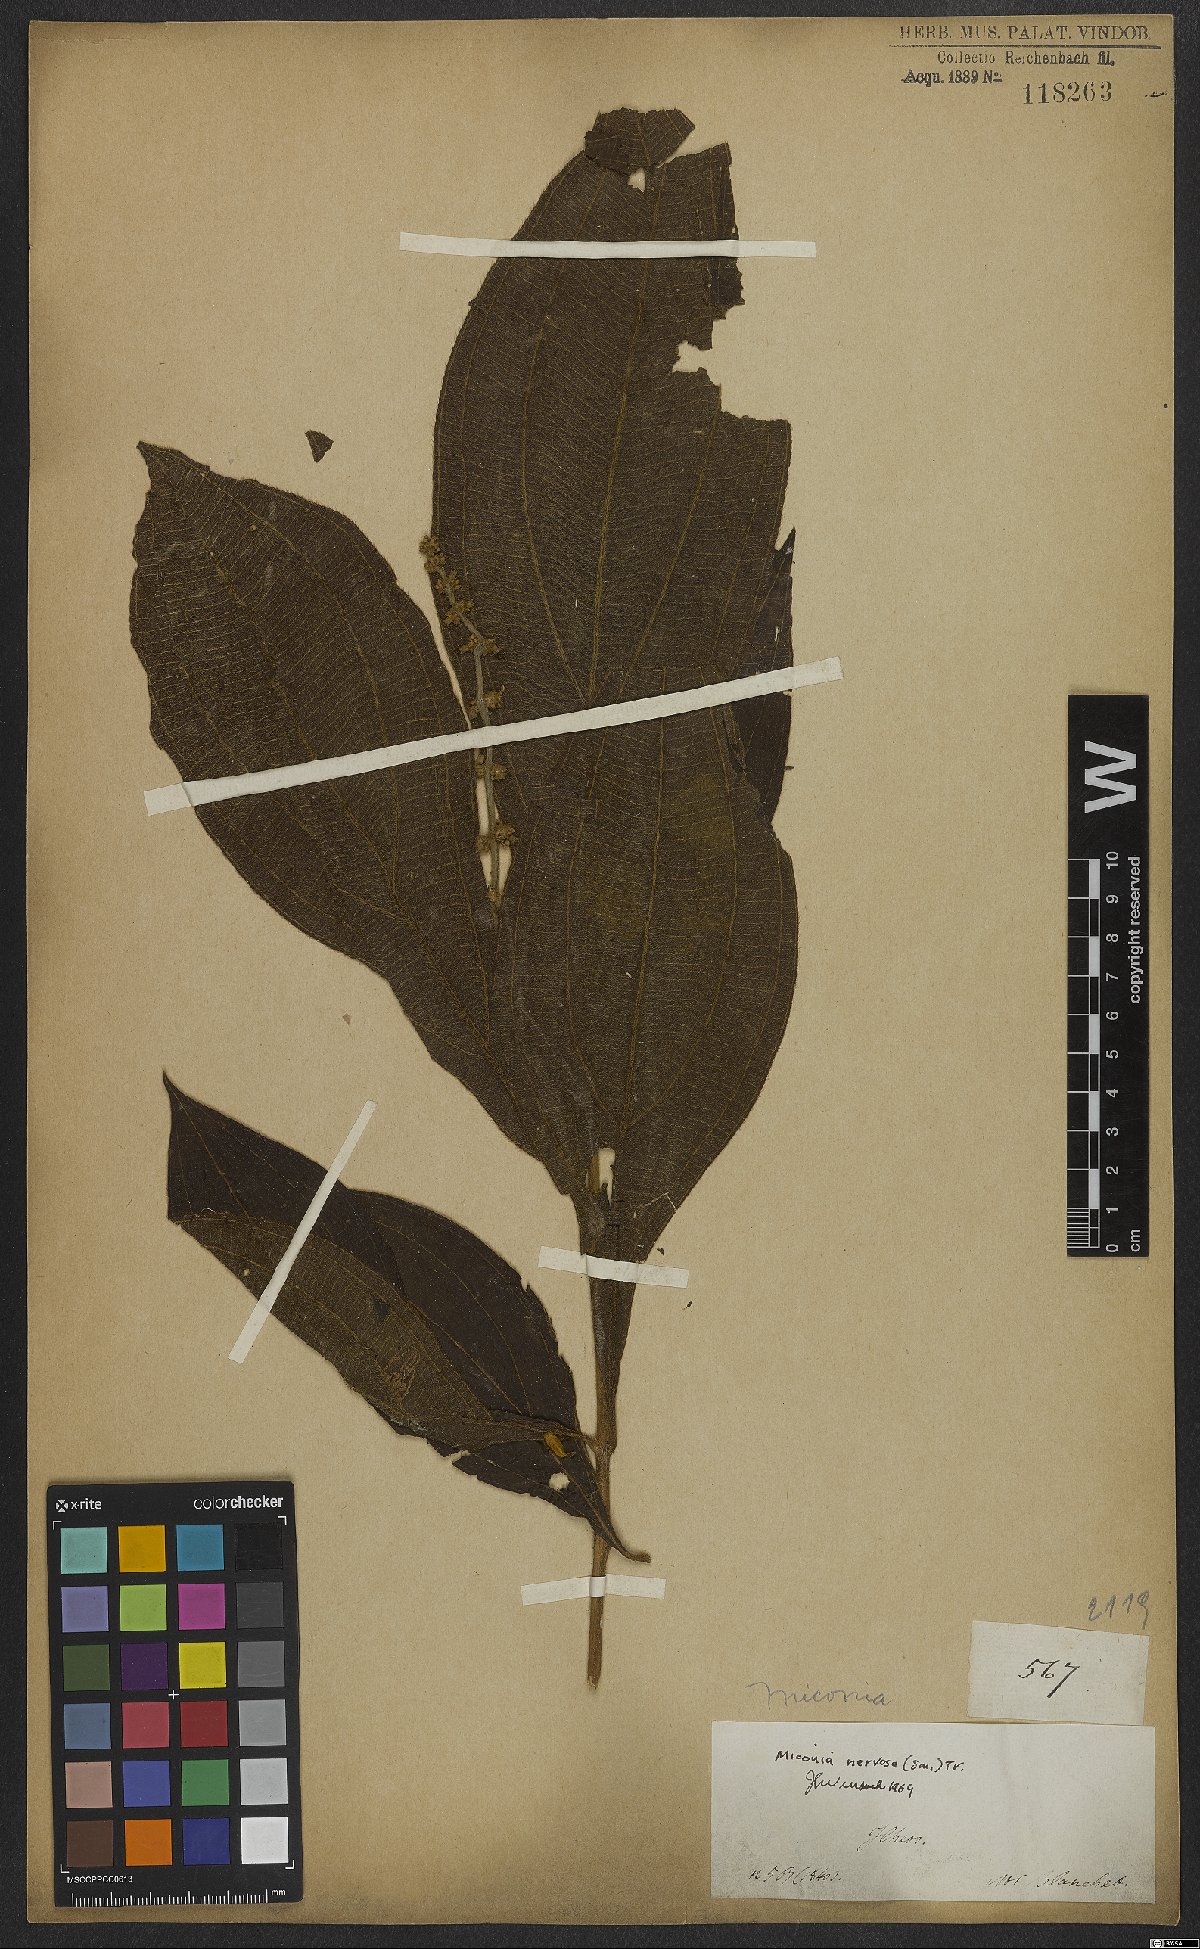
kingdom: Plantae
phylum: Tracheophyta
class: Magnoliopsida
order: Myrtales
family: Melastomataceae
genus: Miconia
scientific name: Miconia nervosa
